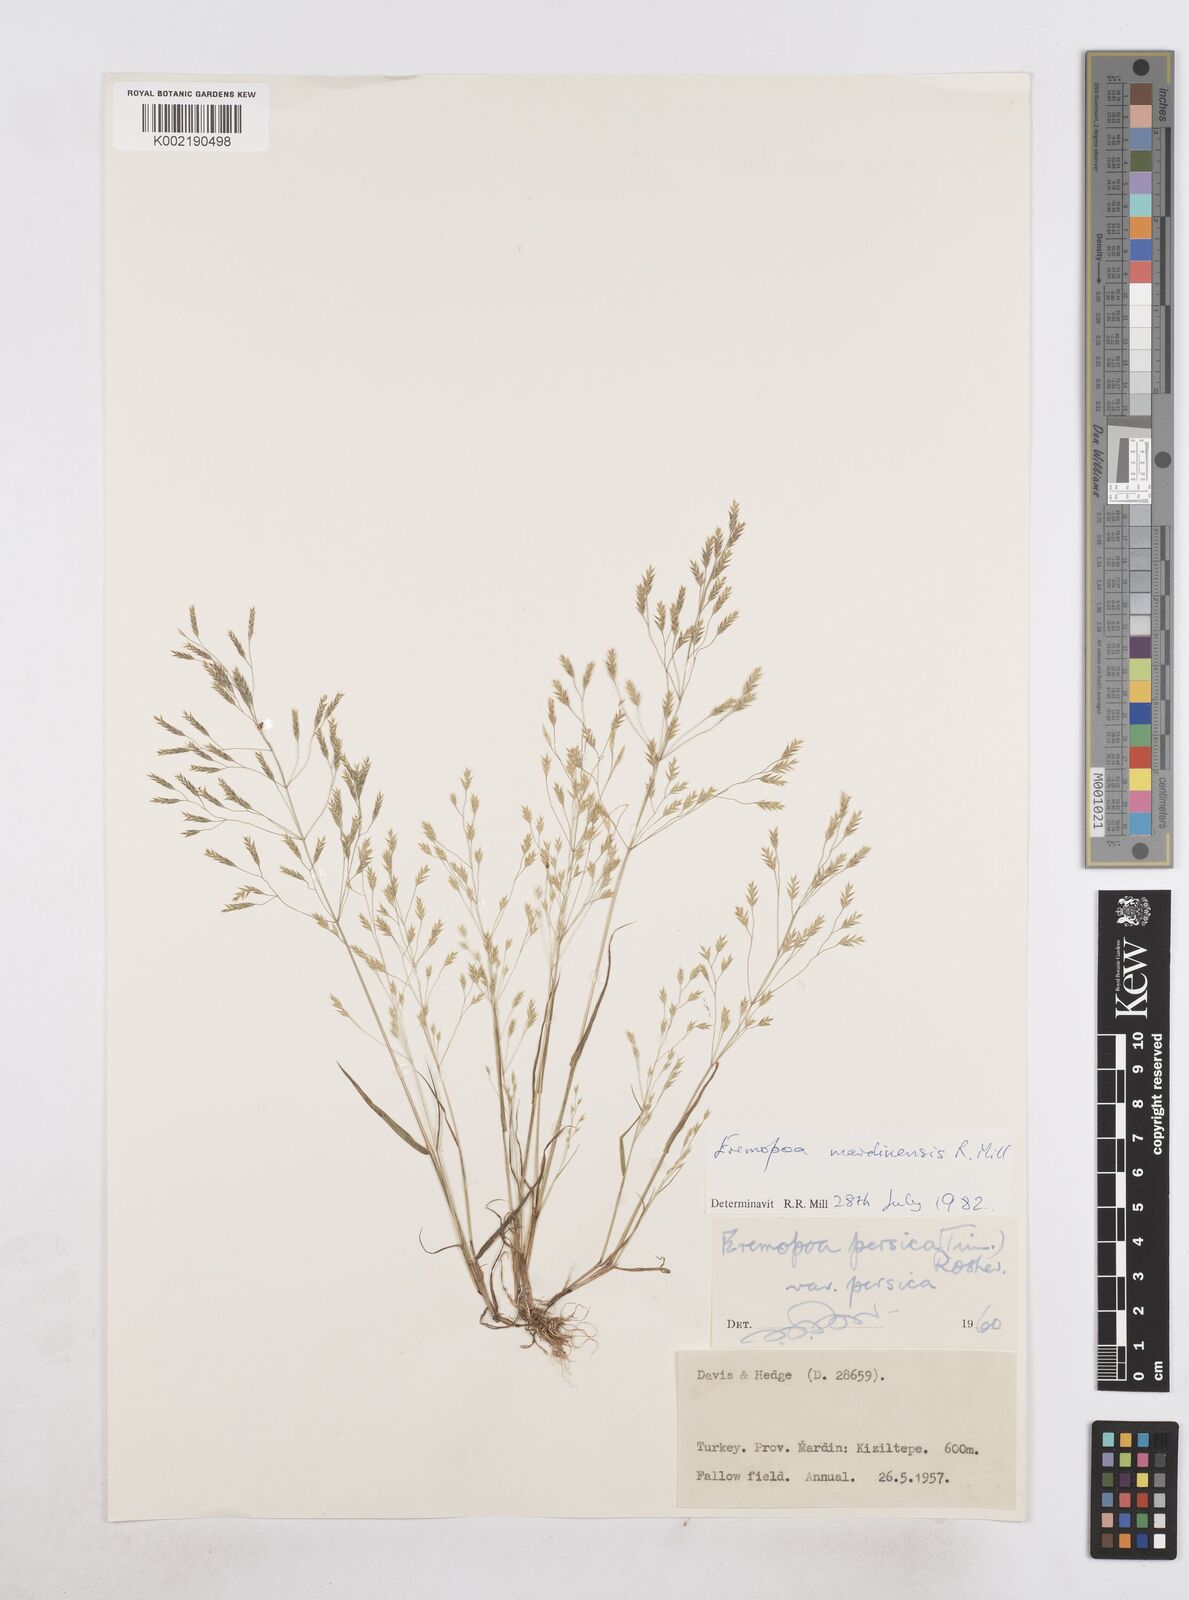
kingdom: Plantae
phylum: Tracheophyta
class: Liliopsida
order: Poales
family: Poaceae
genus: Poa
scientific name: Poa persica
